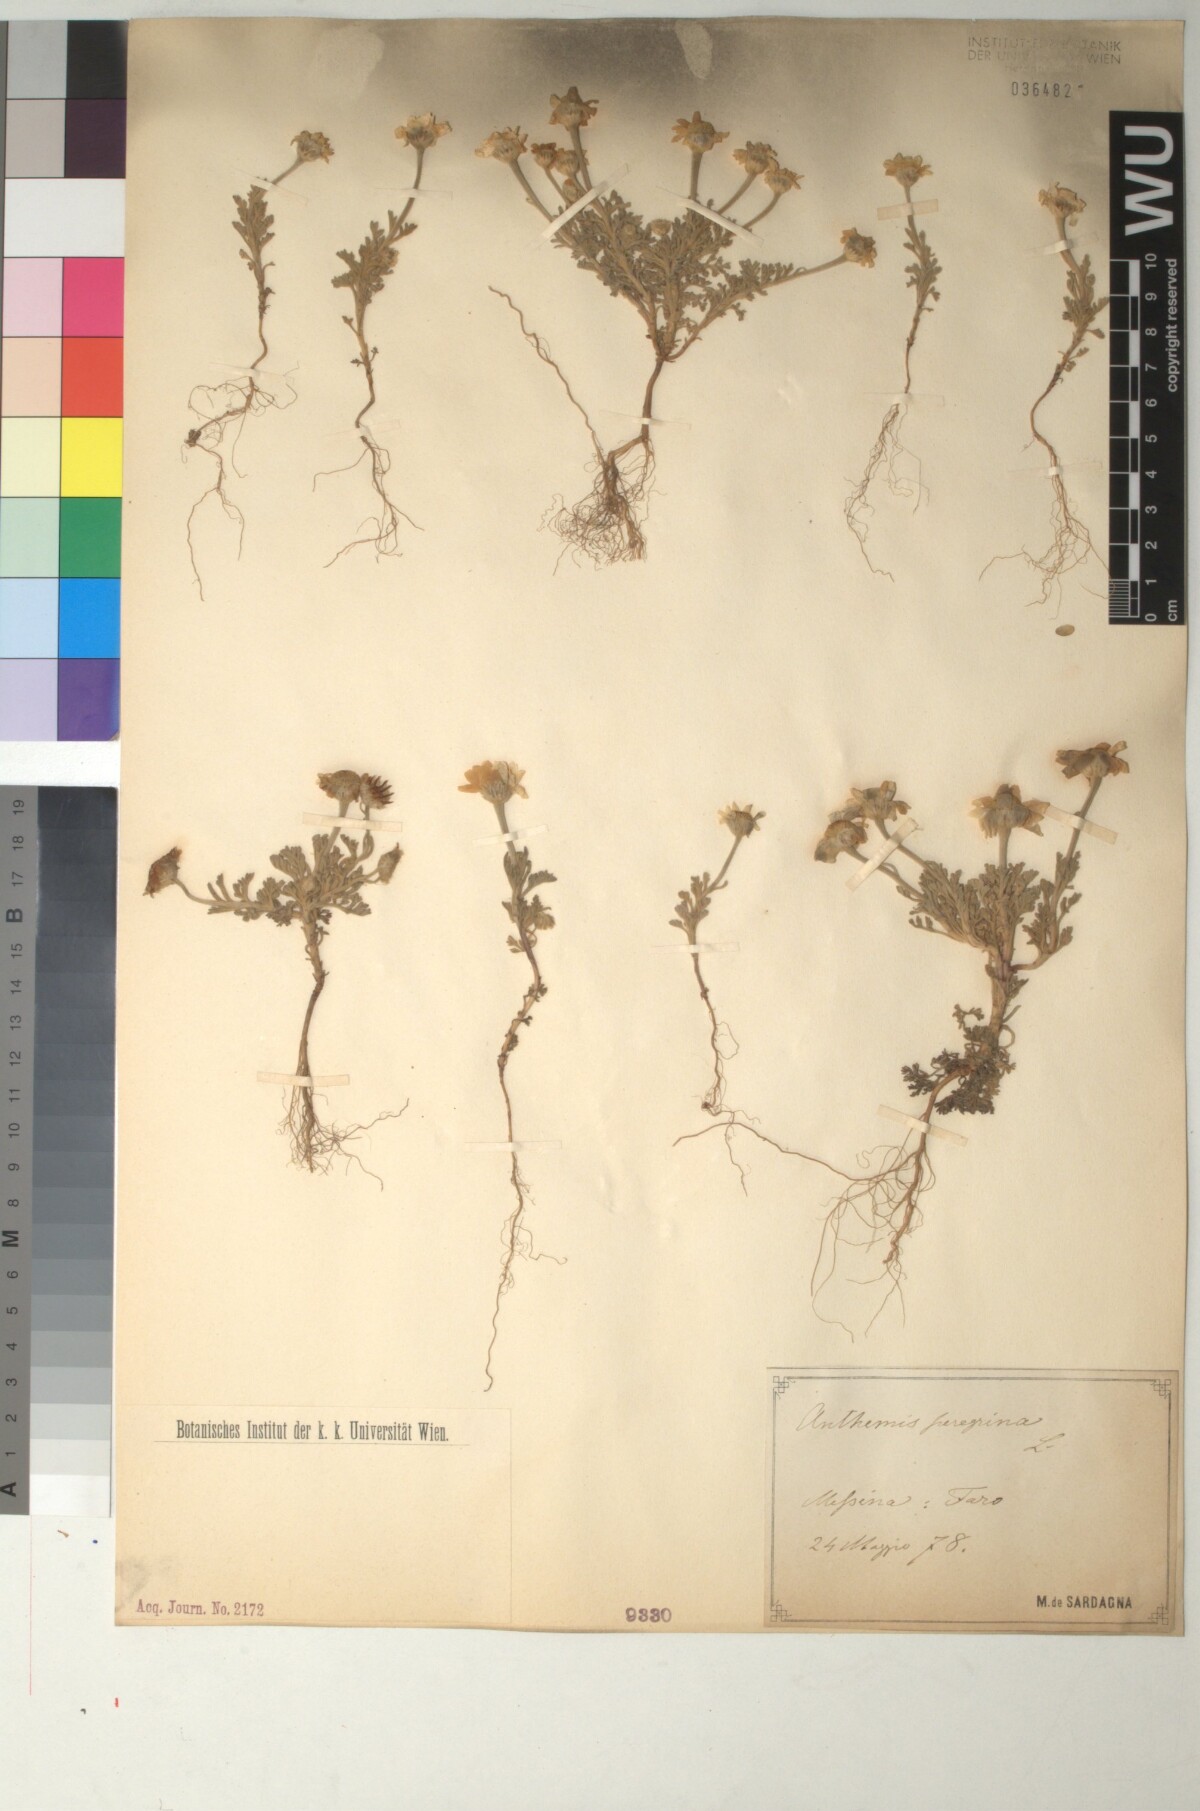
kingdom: Plantae
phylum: Tracheophyta
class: Magnoliopsida
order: Asterales
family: Asteraceae
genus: Anthemis
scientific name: Anthemis tomentosa
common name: Woolly chamomile
